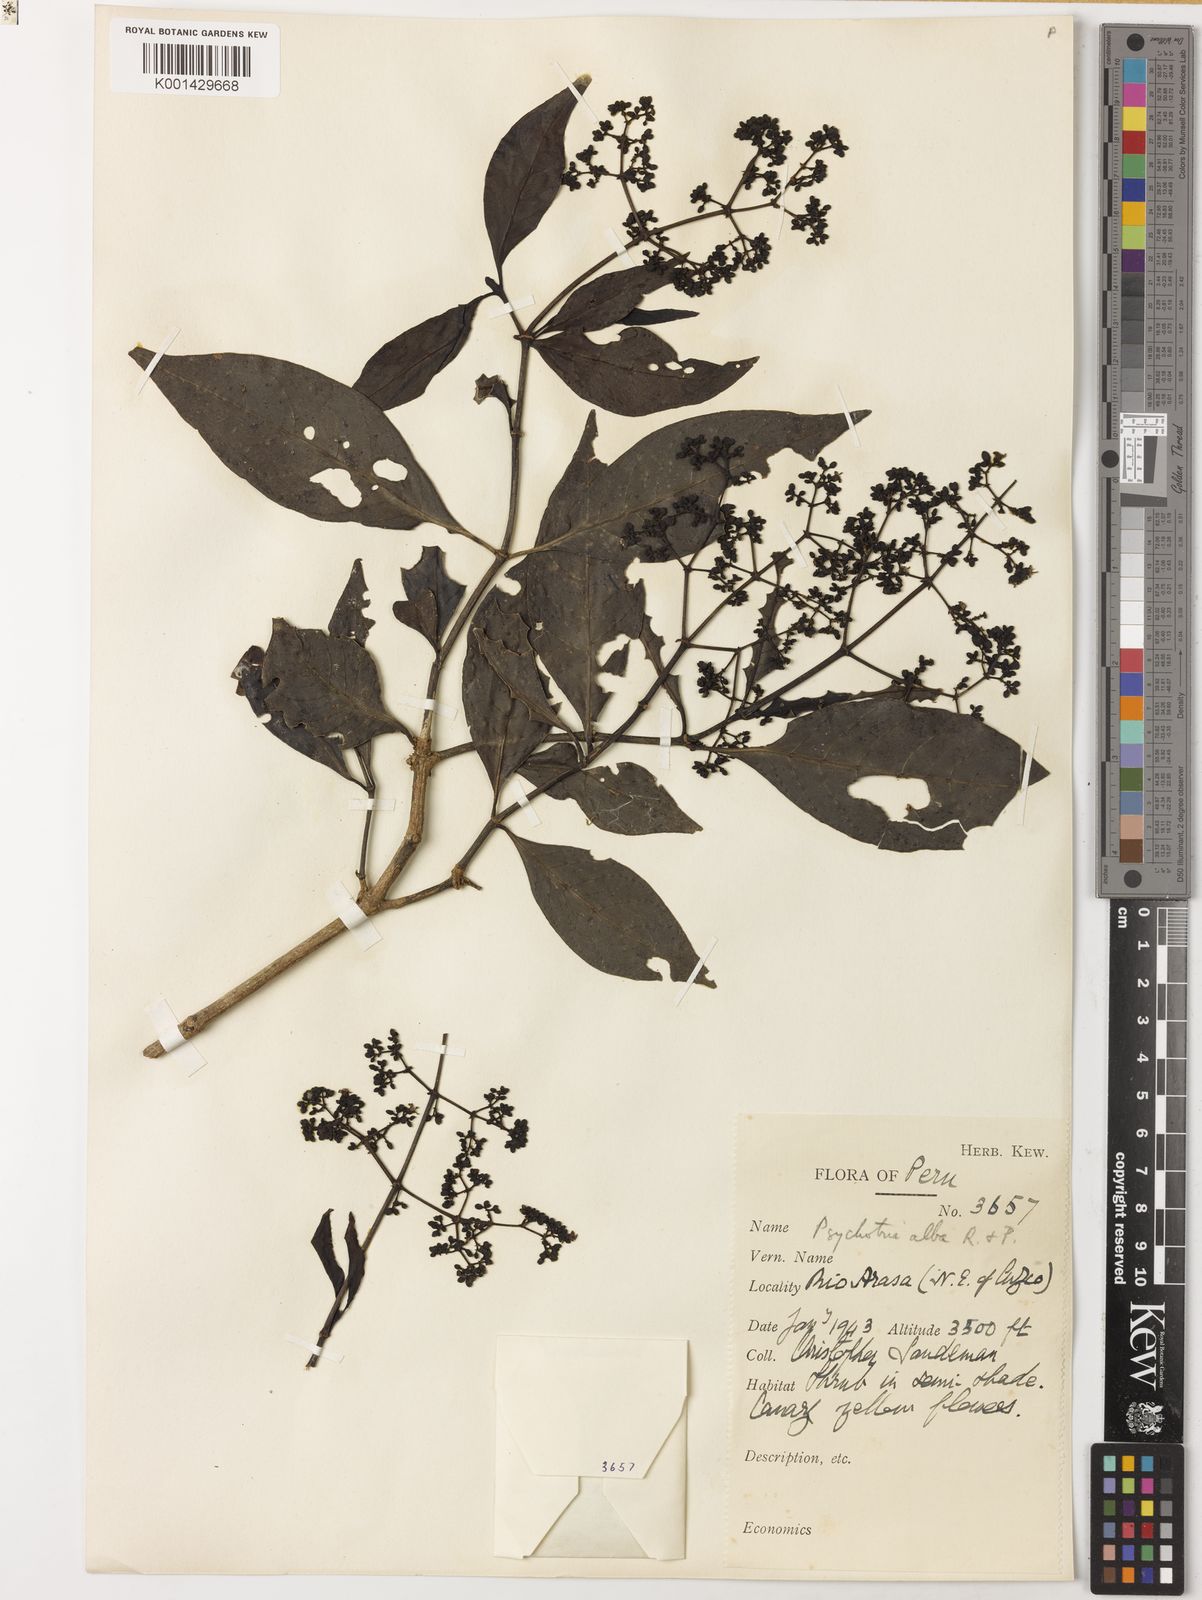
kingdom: Plantae
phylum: Tracheophyta
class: Magnoliopsida
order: Gentianales
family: Rubiaceae
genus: Psychotria
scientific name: Psychotria alba
